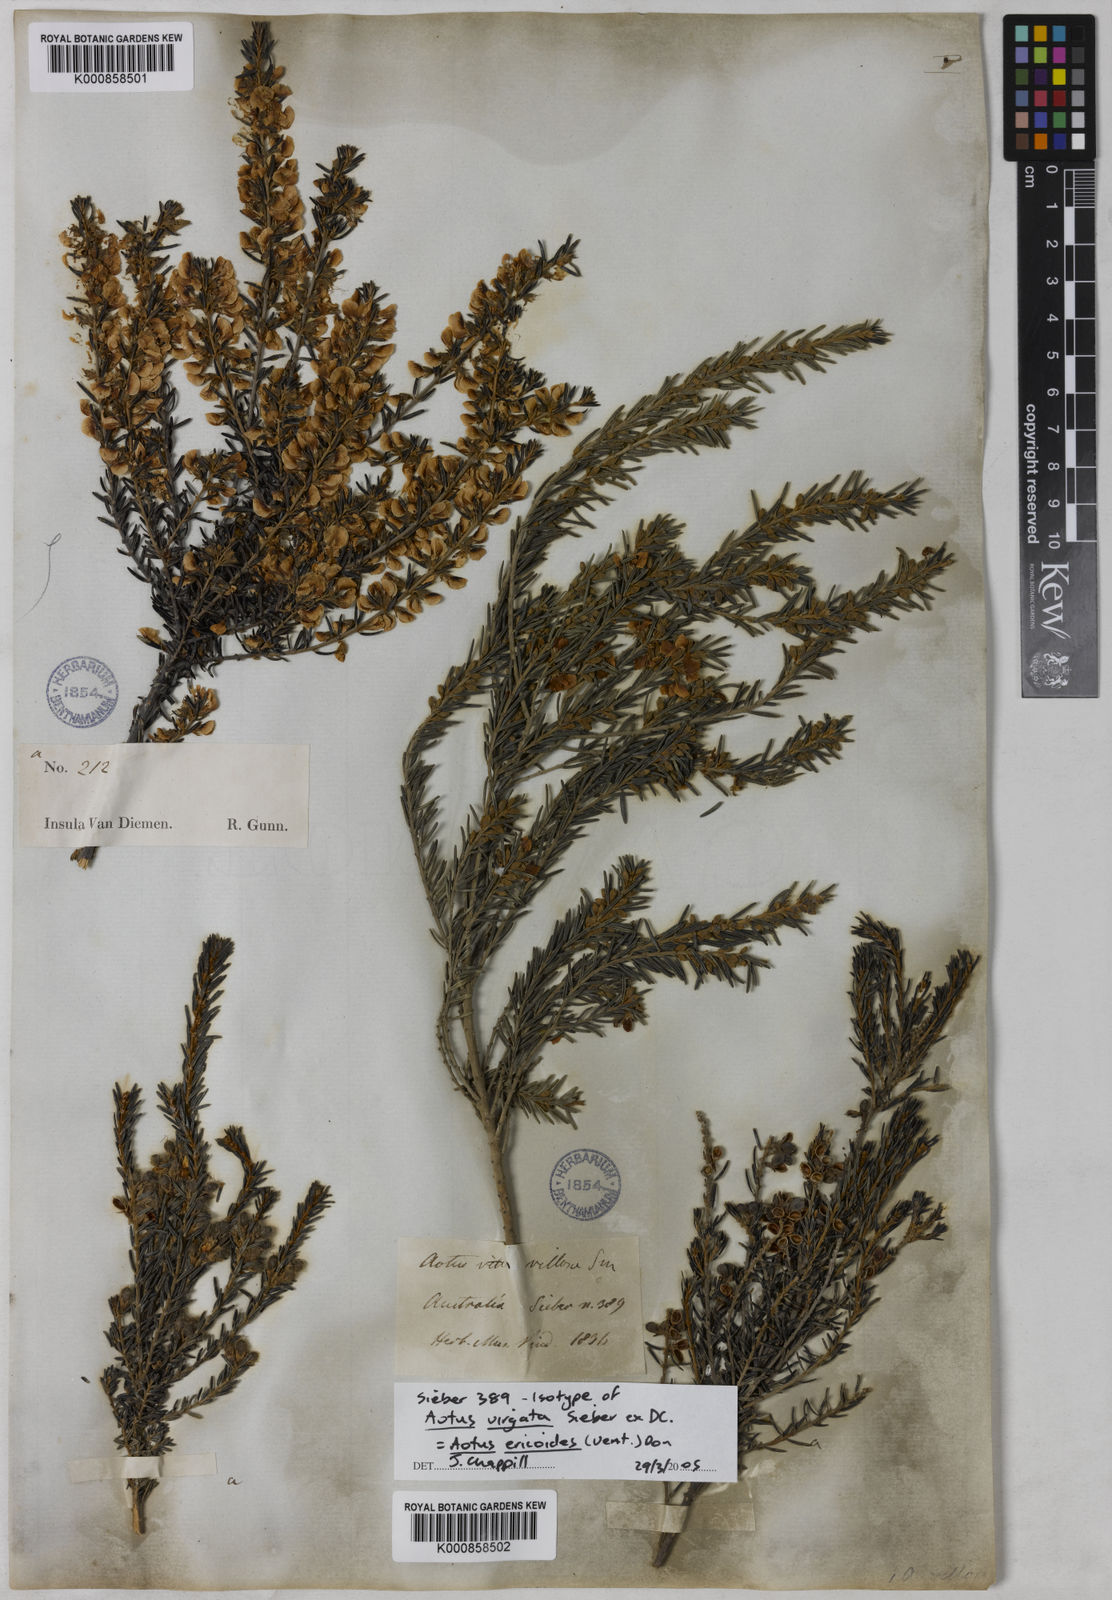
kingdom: Plantae
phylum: Tracheophyta
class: Magnoliopsida
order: Fabales
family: Fabaceae
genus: Aotus
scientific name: Aotus ericoides
